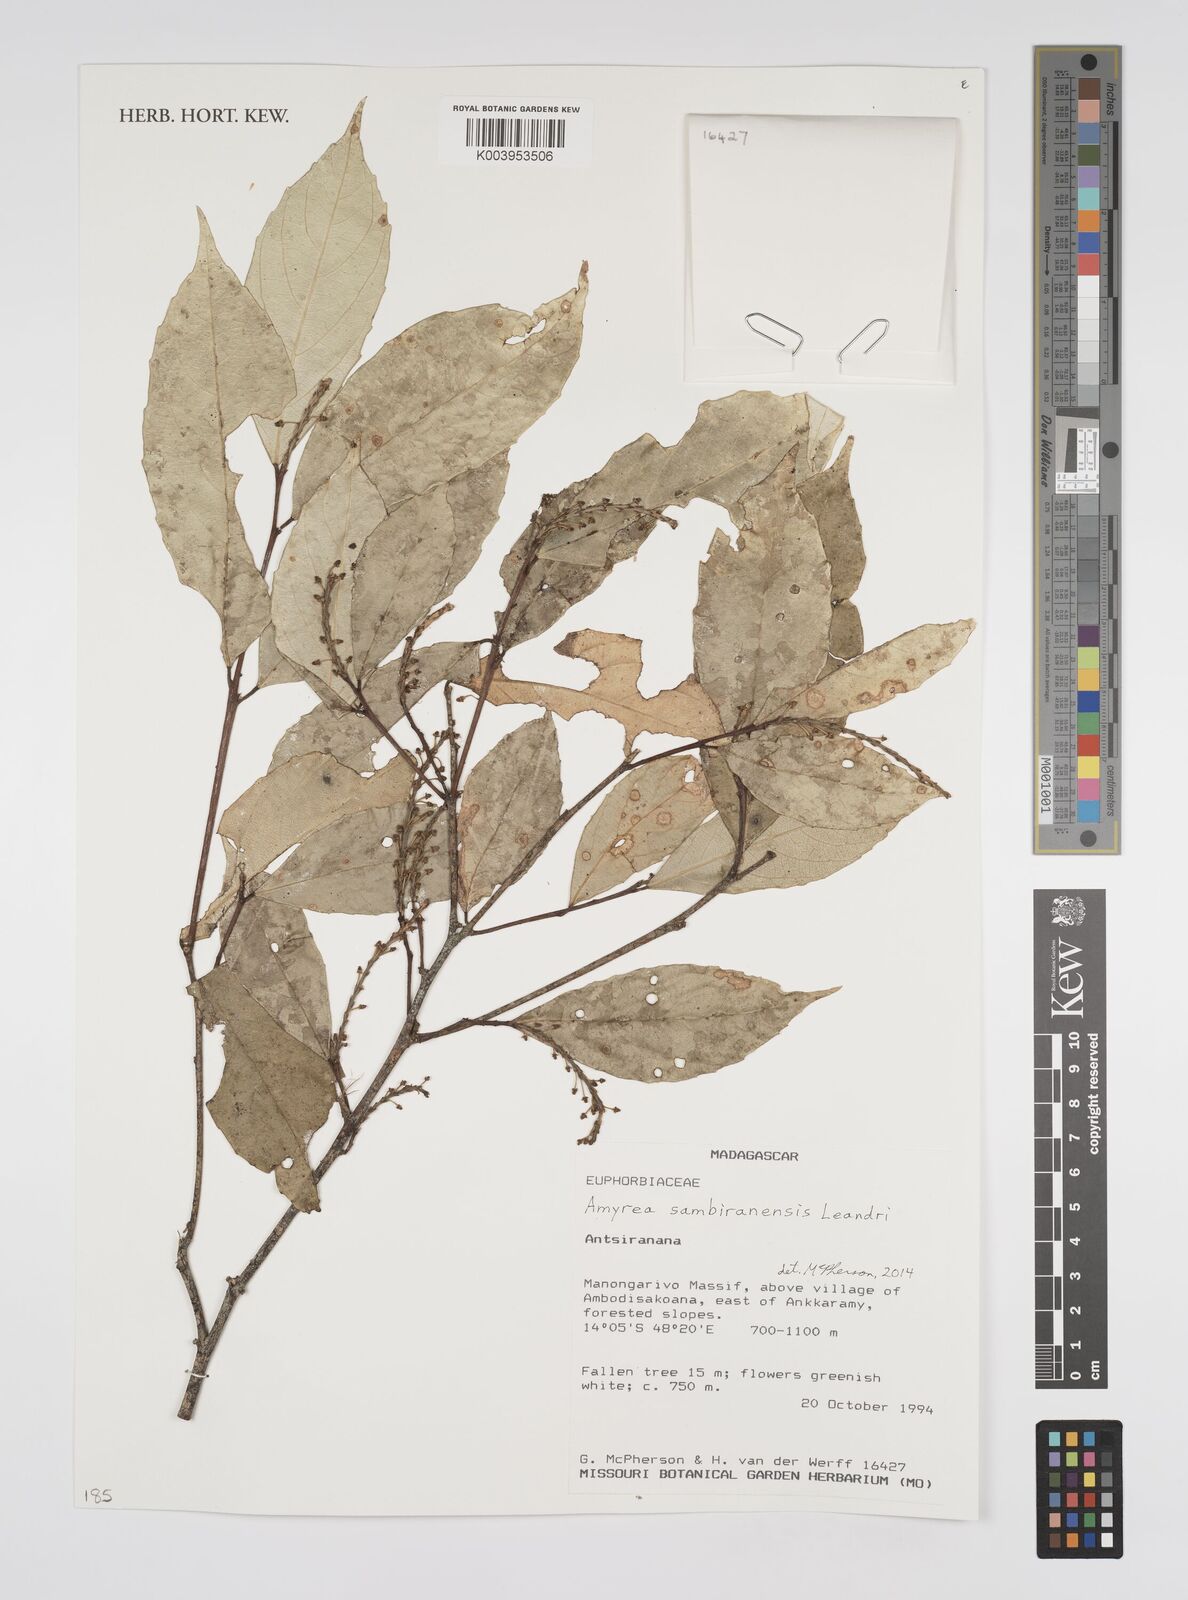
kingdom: Plantae
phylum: Tracheophyta
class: Magnoliopsida
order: Malpighiales
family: Euphorbiaceae
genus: Amyrea
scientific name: Amyrea sambiranensis
